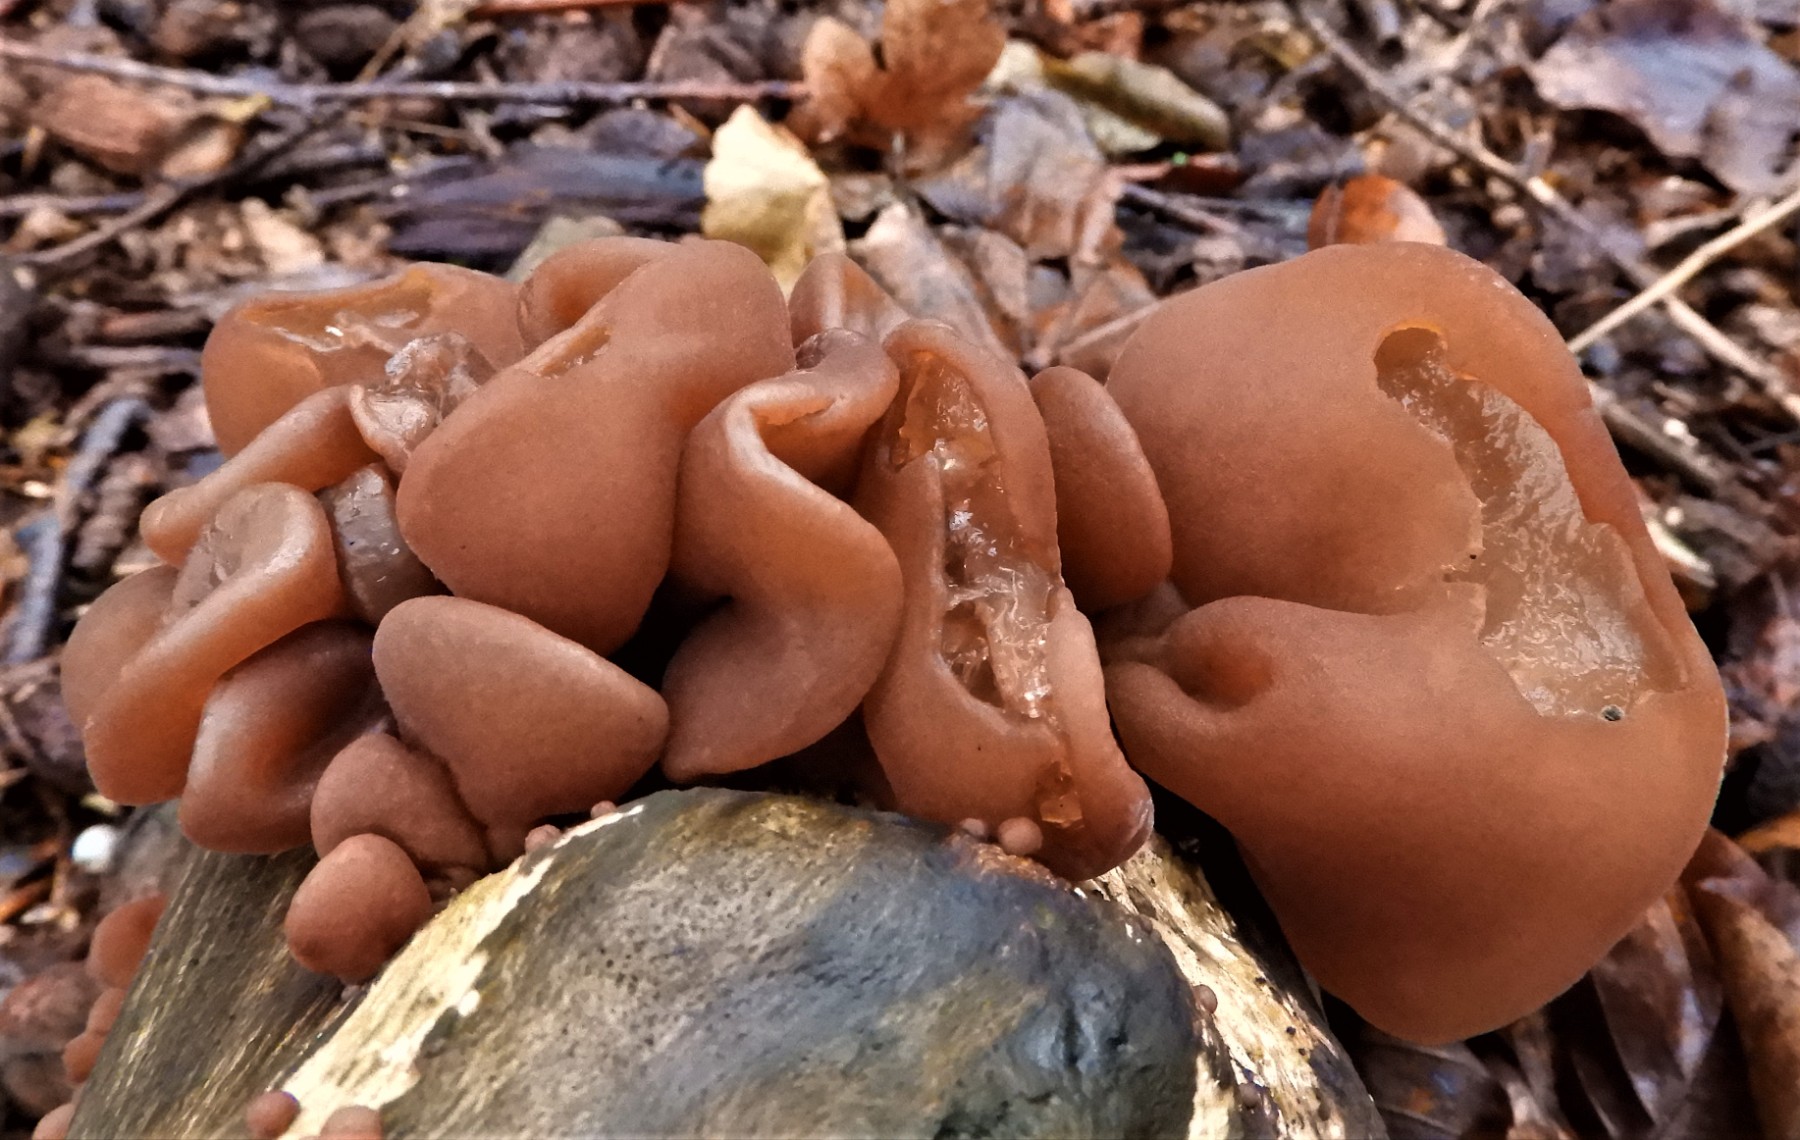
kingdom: Fungi
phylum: Basidiomycota
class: Agaricomycetes
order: Auriculariales
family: Auriculariaceae
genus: Auricularia
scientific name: Auricularia auricula-judae
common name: almindelig judasøre
